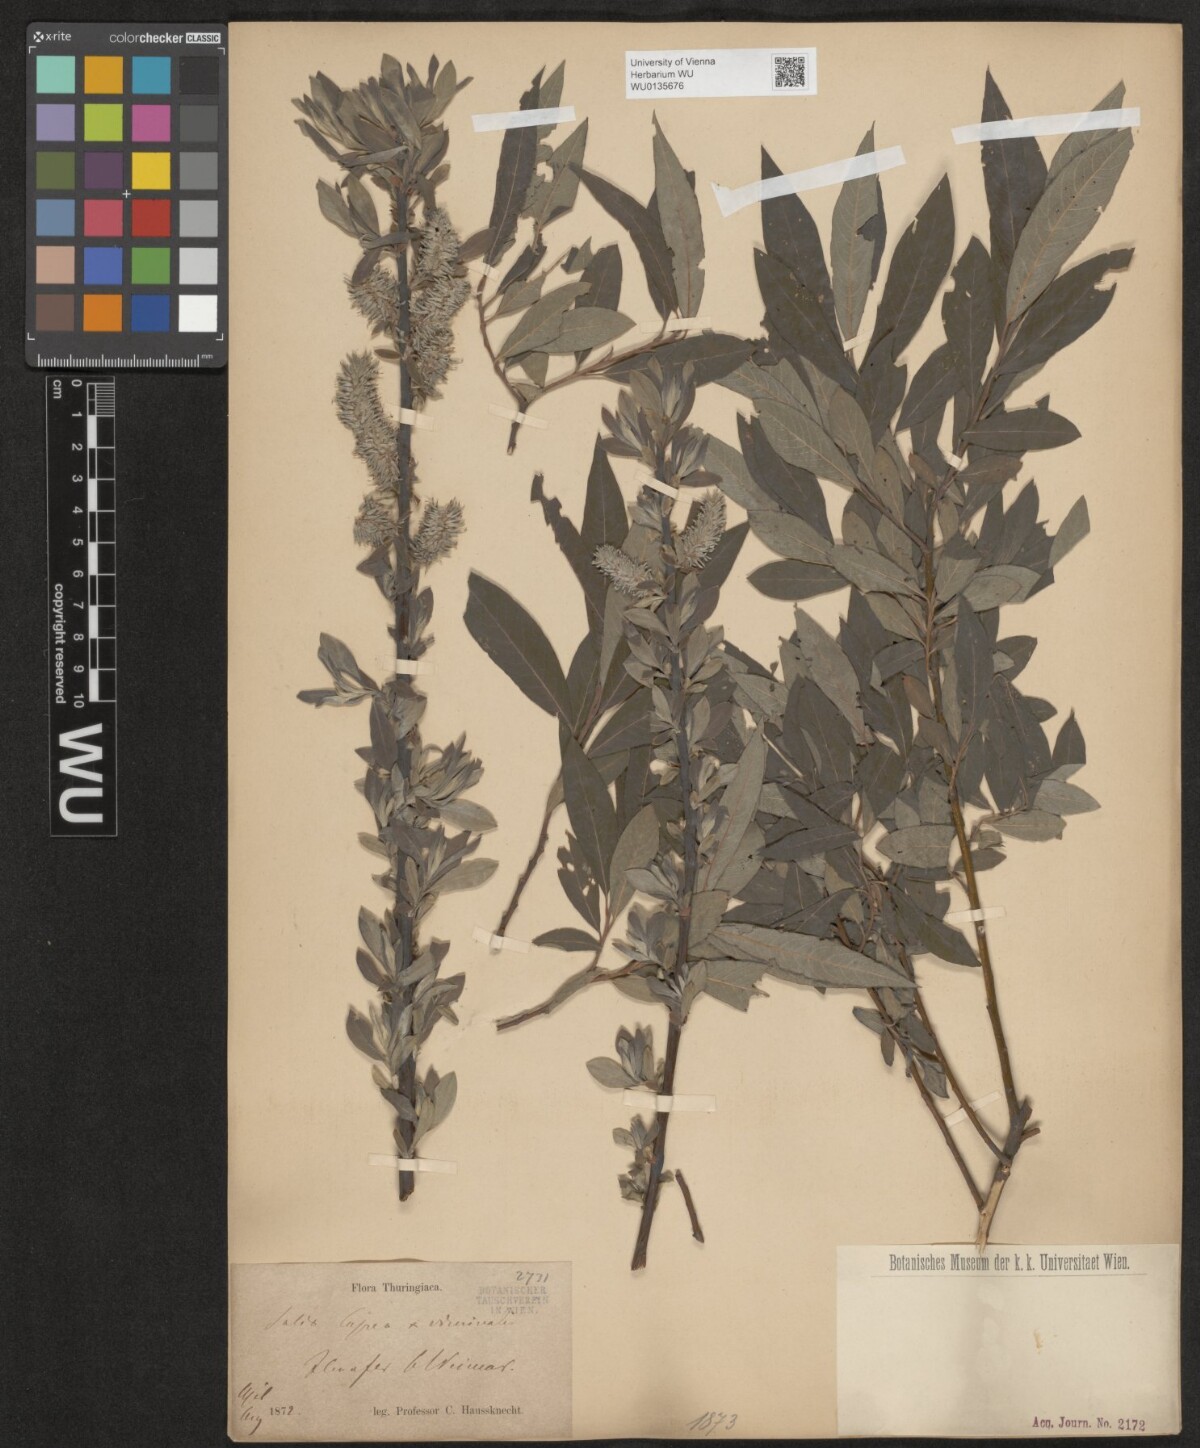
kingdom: Plantae
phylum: Tracheophyta
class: Magnoliopsida
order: Malpighiales
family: Salicaceae
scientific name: Salicaceae
